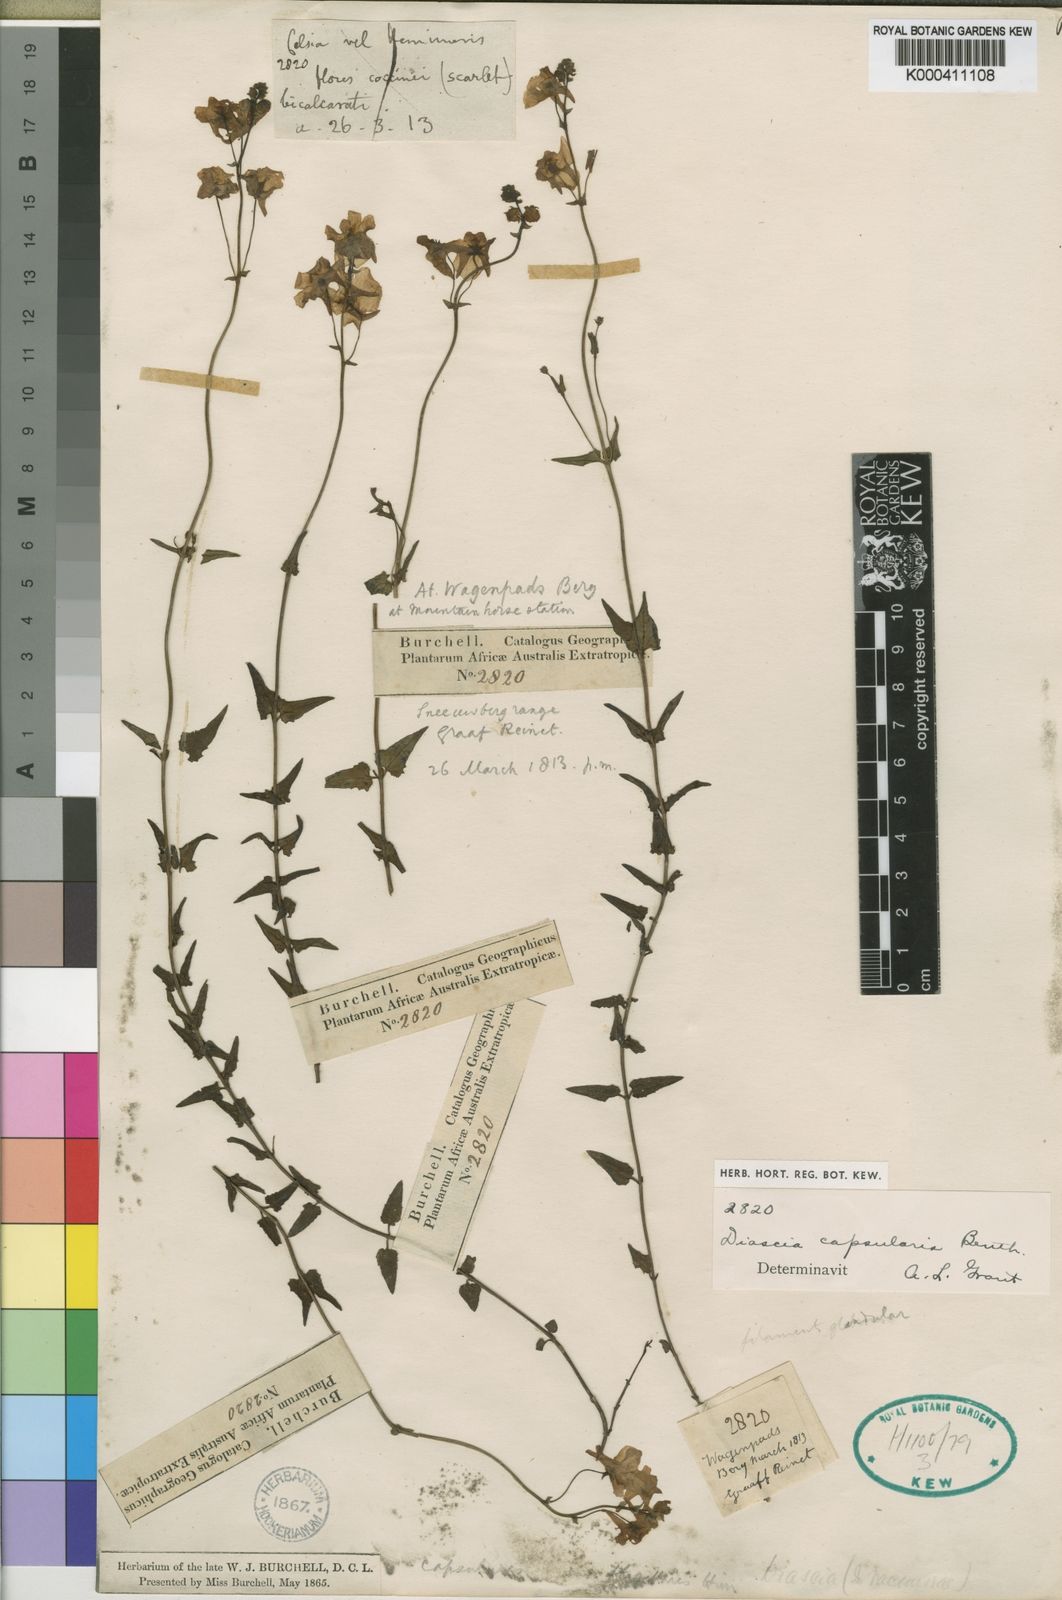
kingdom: Plantae
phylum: Tracheophyta
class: Magnoliopsida
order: Lamiales
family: Scrophulariaceae
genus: Diascia
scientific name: Diascia capsularis
